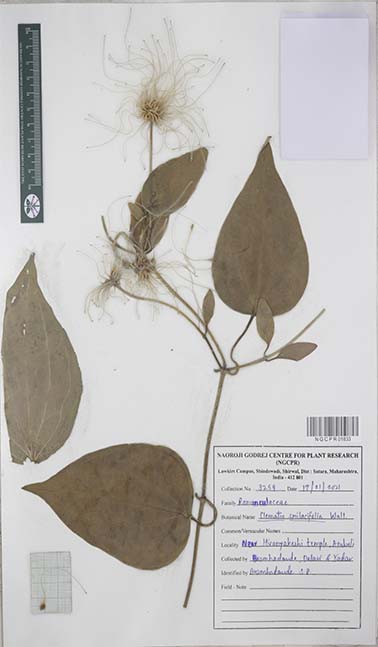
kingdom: Plantae
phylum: Tracheophyta
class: Magnoliopsida
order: Ranunculales
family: Ranunculaceae
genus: Clematis
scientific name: Clematis smilacifolia
